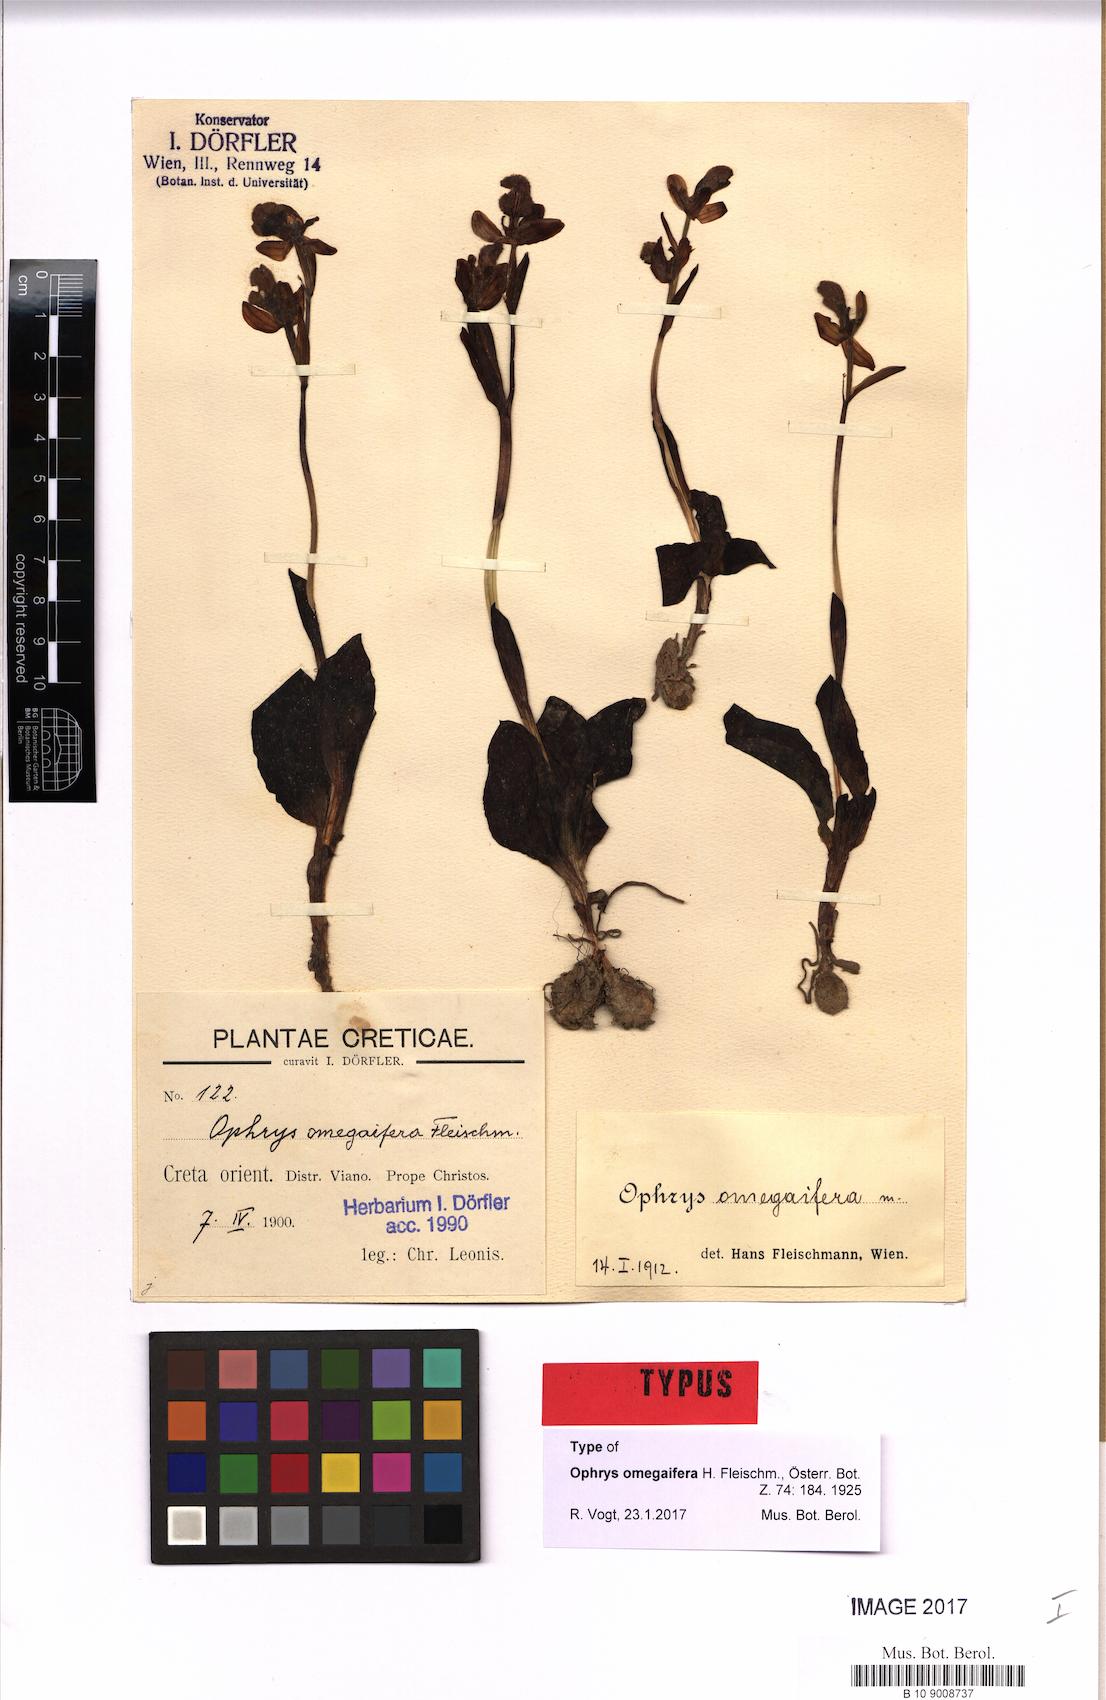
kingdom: Plantae
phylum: Tracheophyta
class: Liliopsida
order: Asparagales
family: Orchidaceae
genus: Ophrys
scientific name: Ophrys omegaifera
